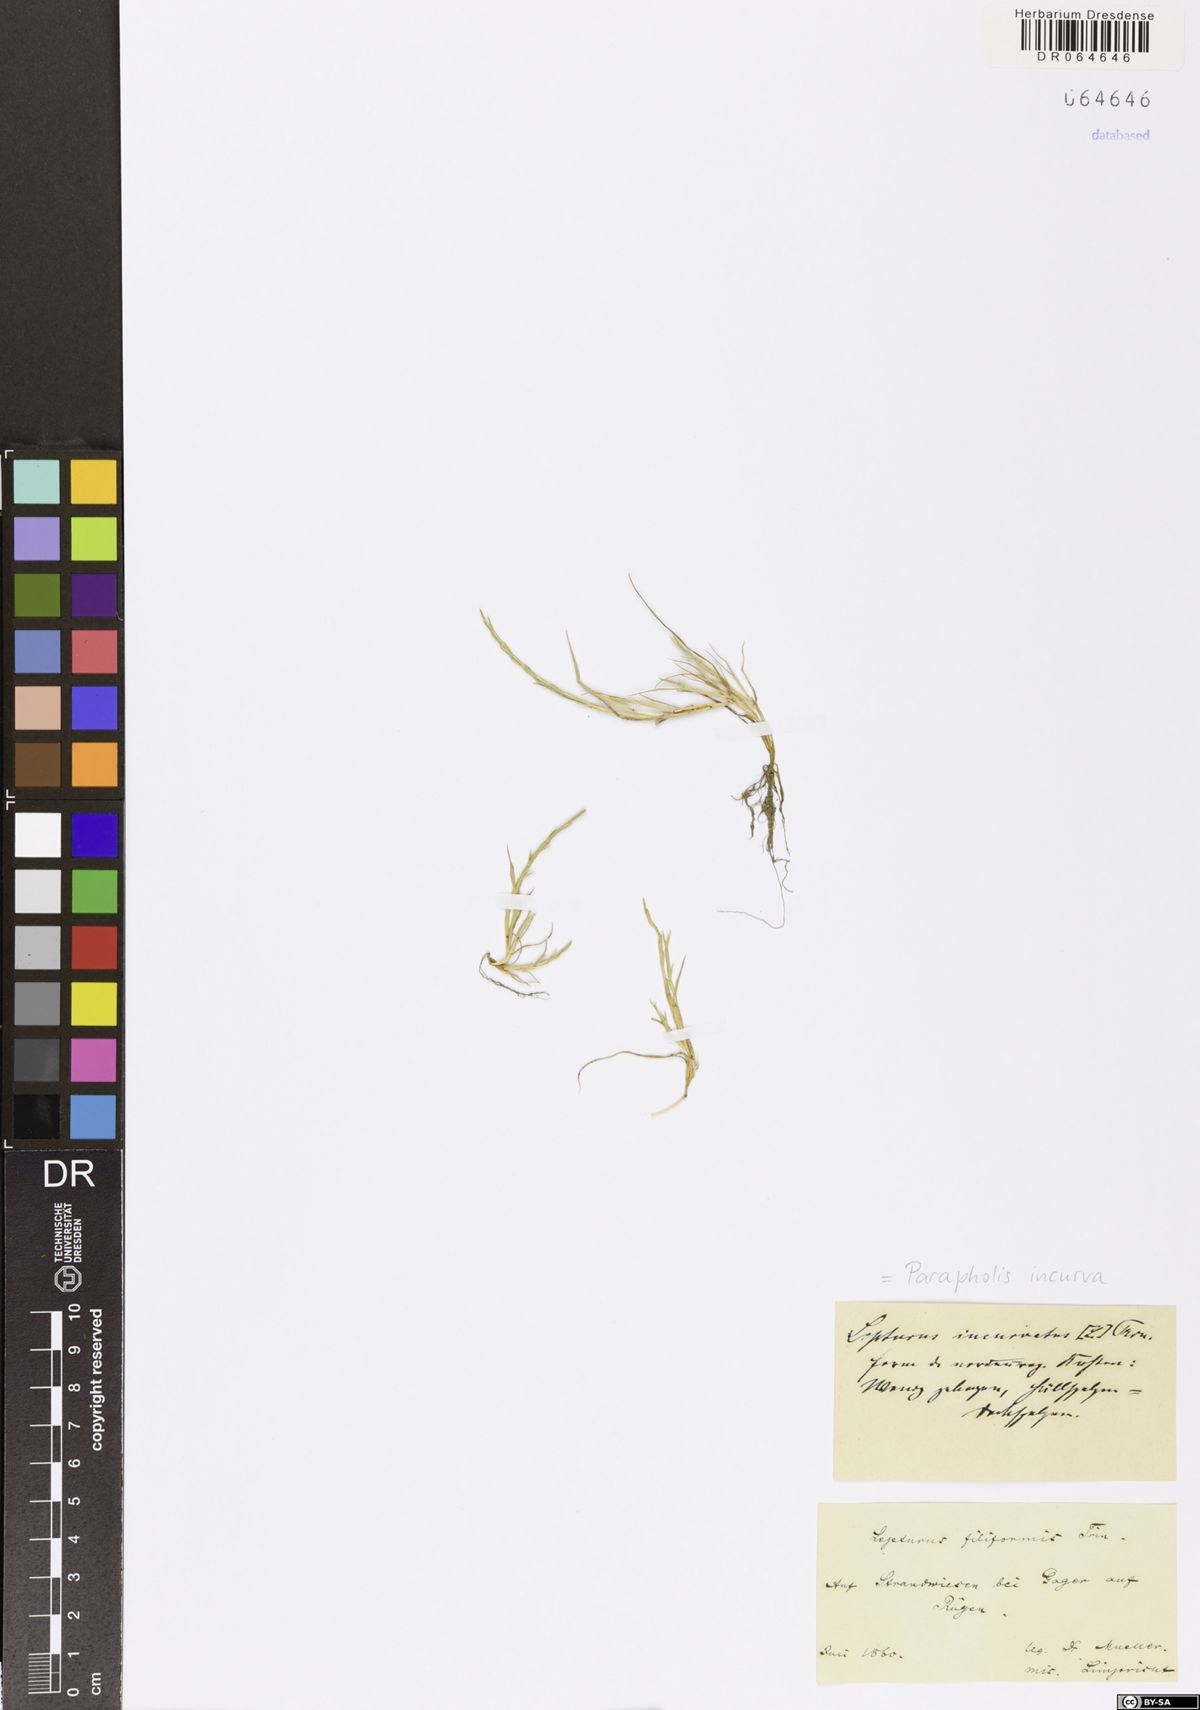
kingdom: Plantae
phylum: Tracheophyta
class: Liliopsida
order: Poales
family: Poaceae
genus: Parapholis
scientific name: Parapholis incurva
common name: Curved sicklegrass
